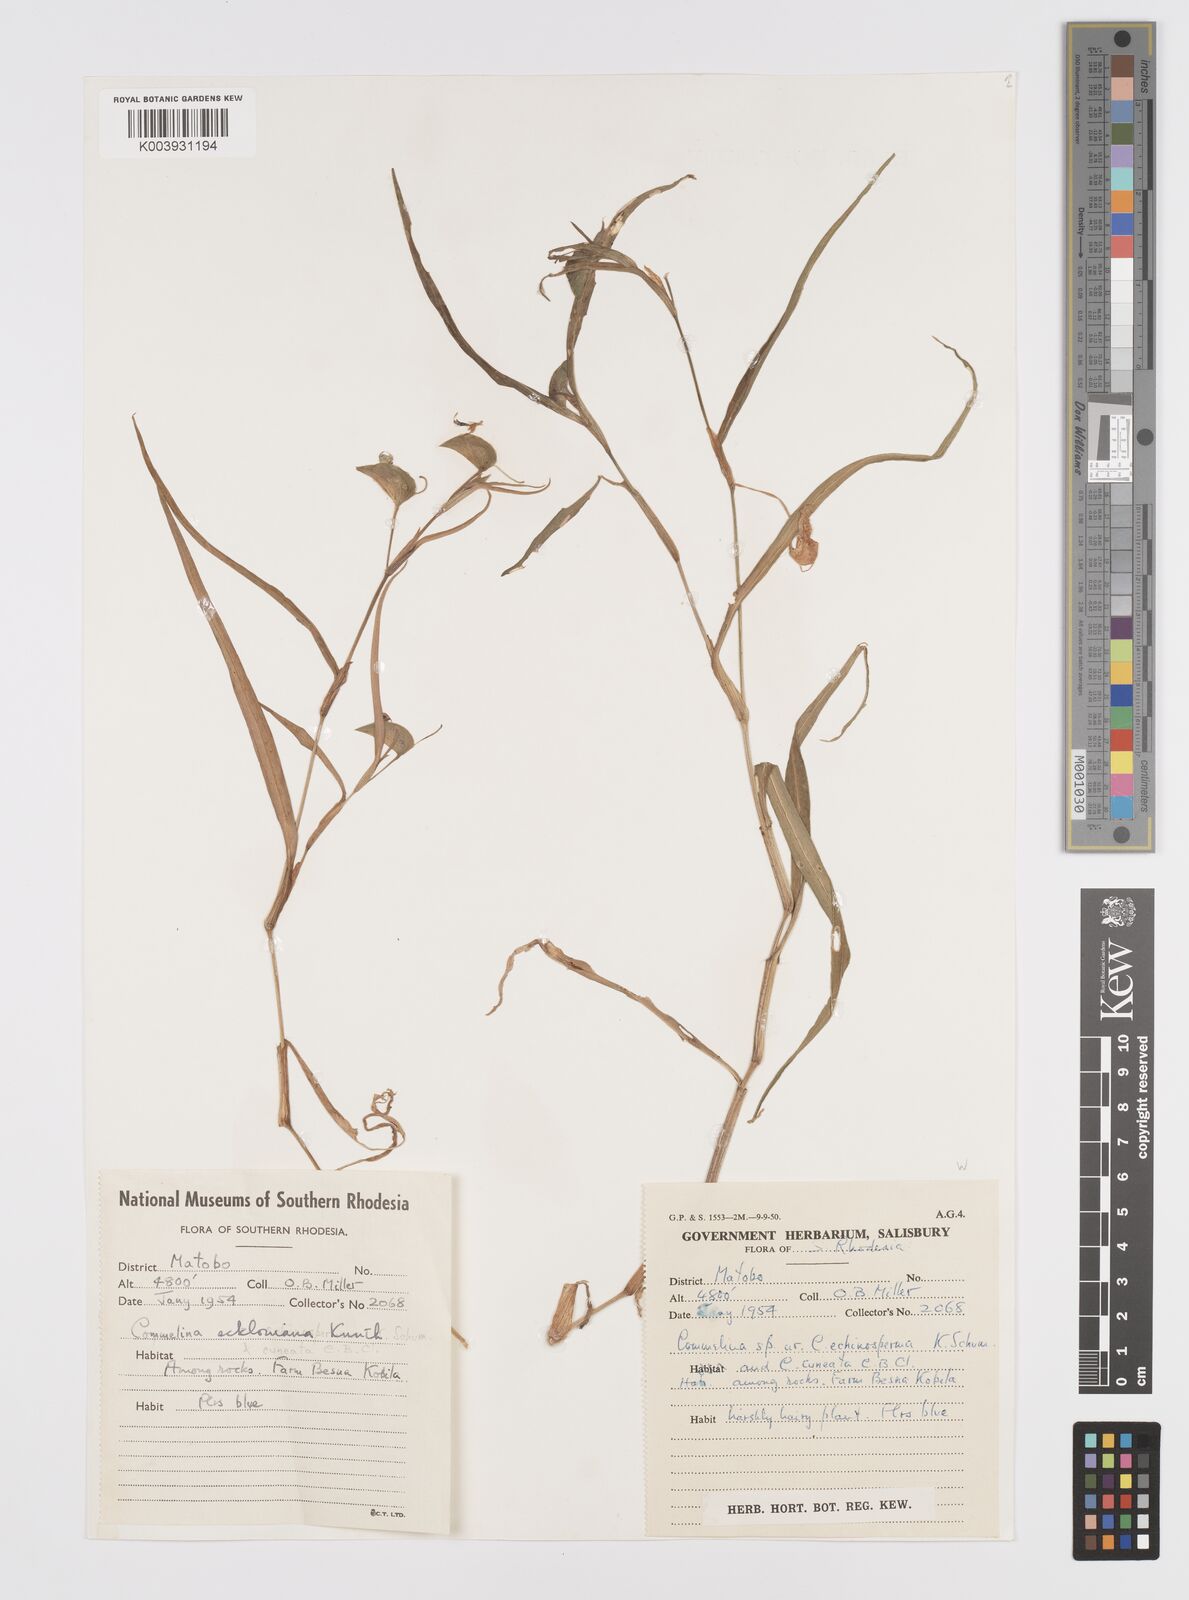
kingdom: Plantae
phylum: Tracheophyta
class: Liliopsida
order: Commelinales
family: Commelinaceae
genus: Commelina
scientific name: Commelina eckloniana
